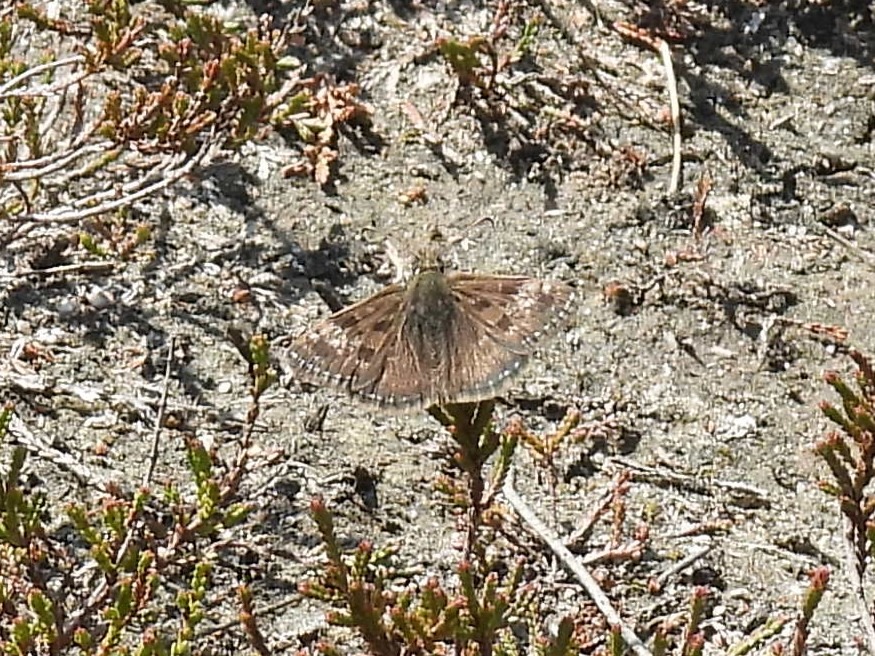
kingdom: Animalia
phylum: Arthropoda
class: Insecta
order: Lepidoptera
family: Hesperiidae
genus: Erynnis
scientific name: Erynnis tages
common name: Gråbåndet bredpande
